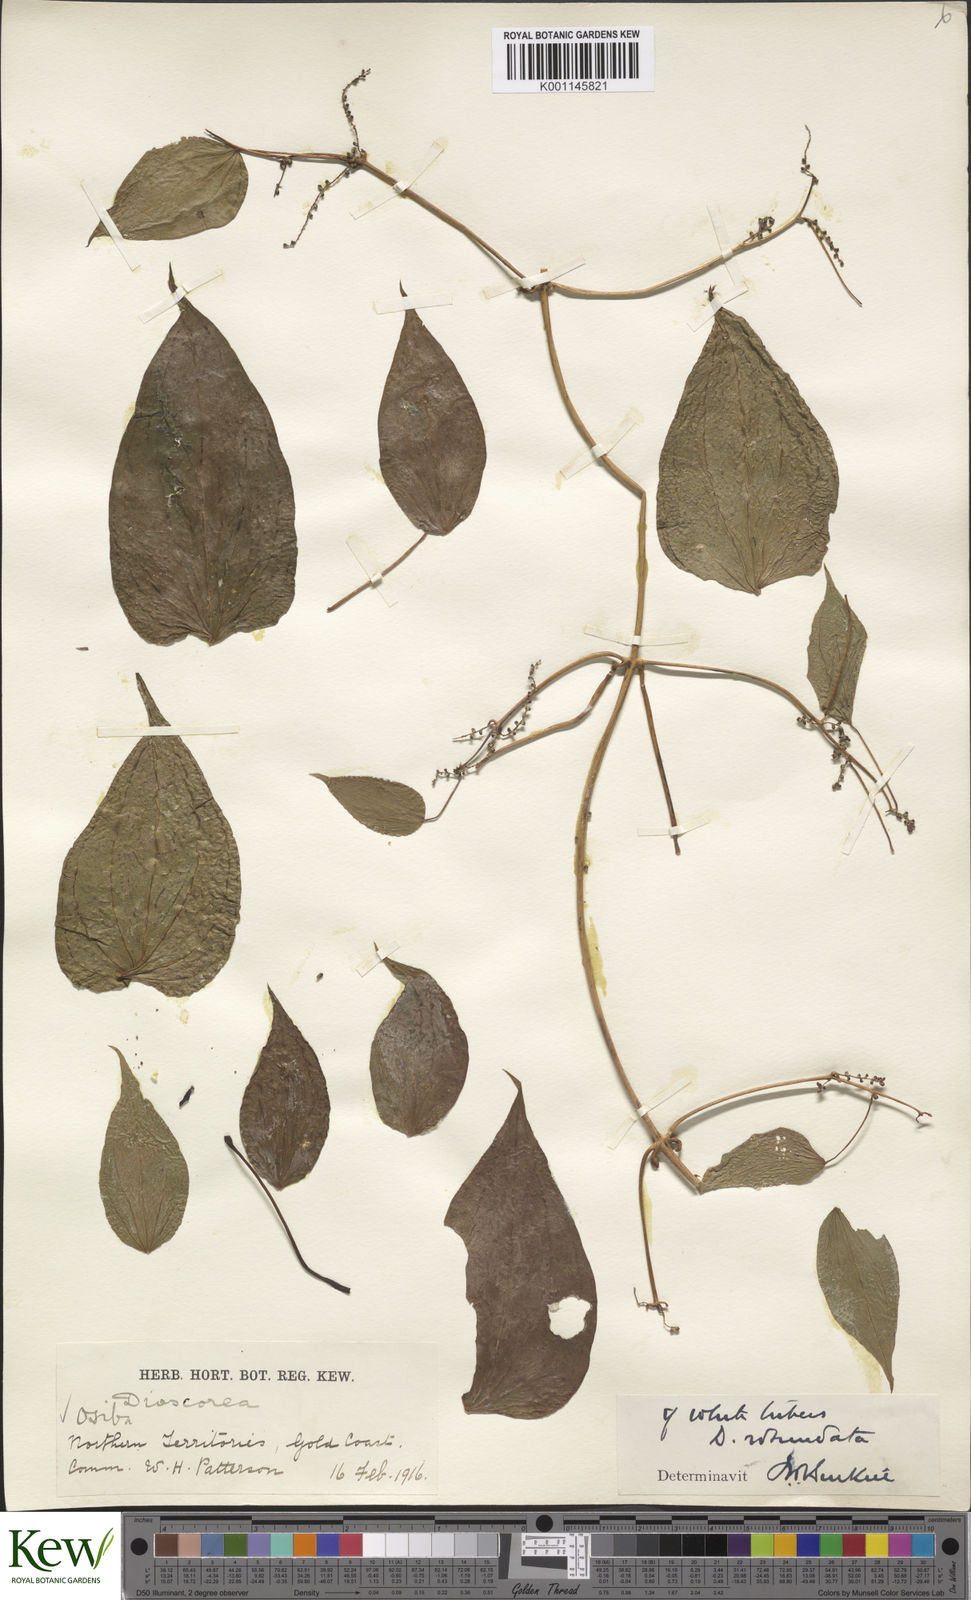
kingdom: Plantae
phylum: Tracheophyta
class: Liliopsida
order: Dioscoreales
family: Dioscoreaceae
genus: Dioscorea
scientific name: Dioscorea cayenensis
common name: Attoto yam
